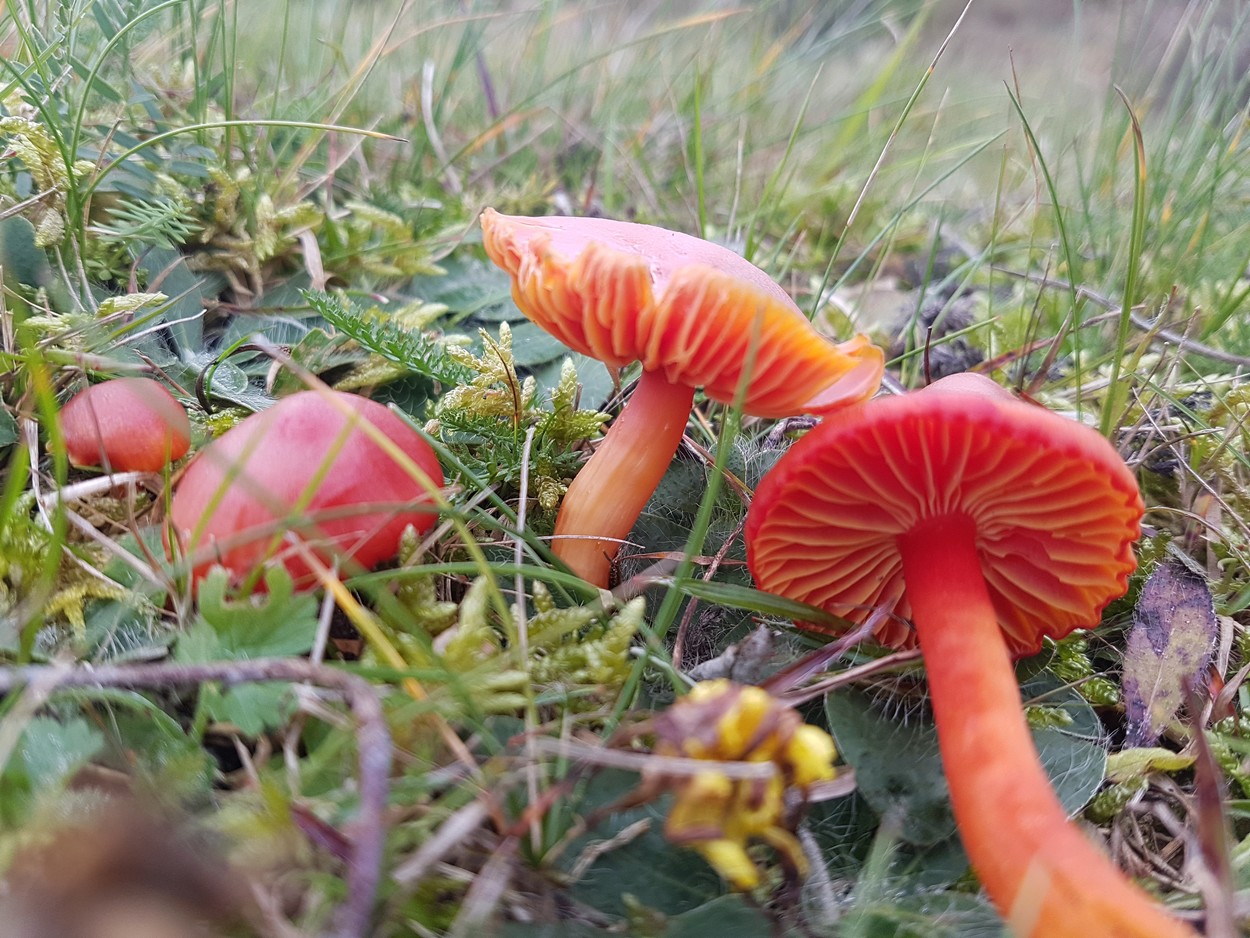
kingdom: Fungi
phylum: Basidiomycota
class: Agaricomycetes
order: Agaricales
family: Hygrophoraceae
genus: Hygrocybe
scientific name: Hygrocybe coccinea
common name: cinnober-vokshat
